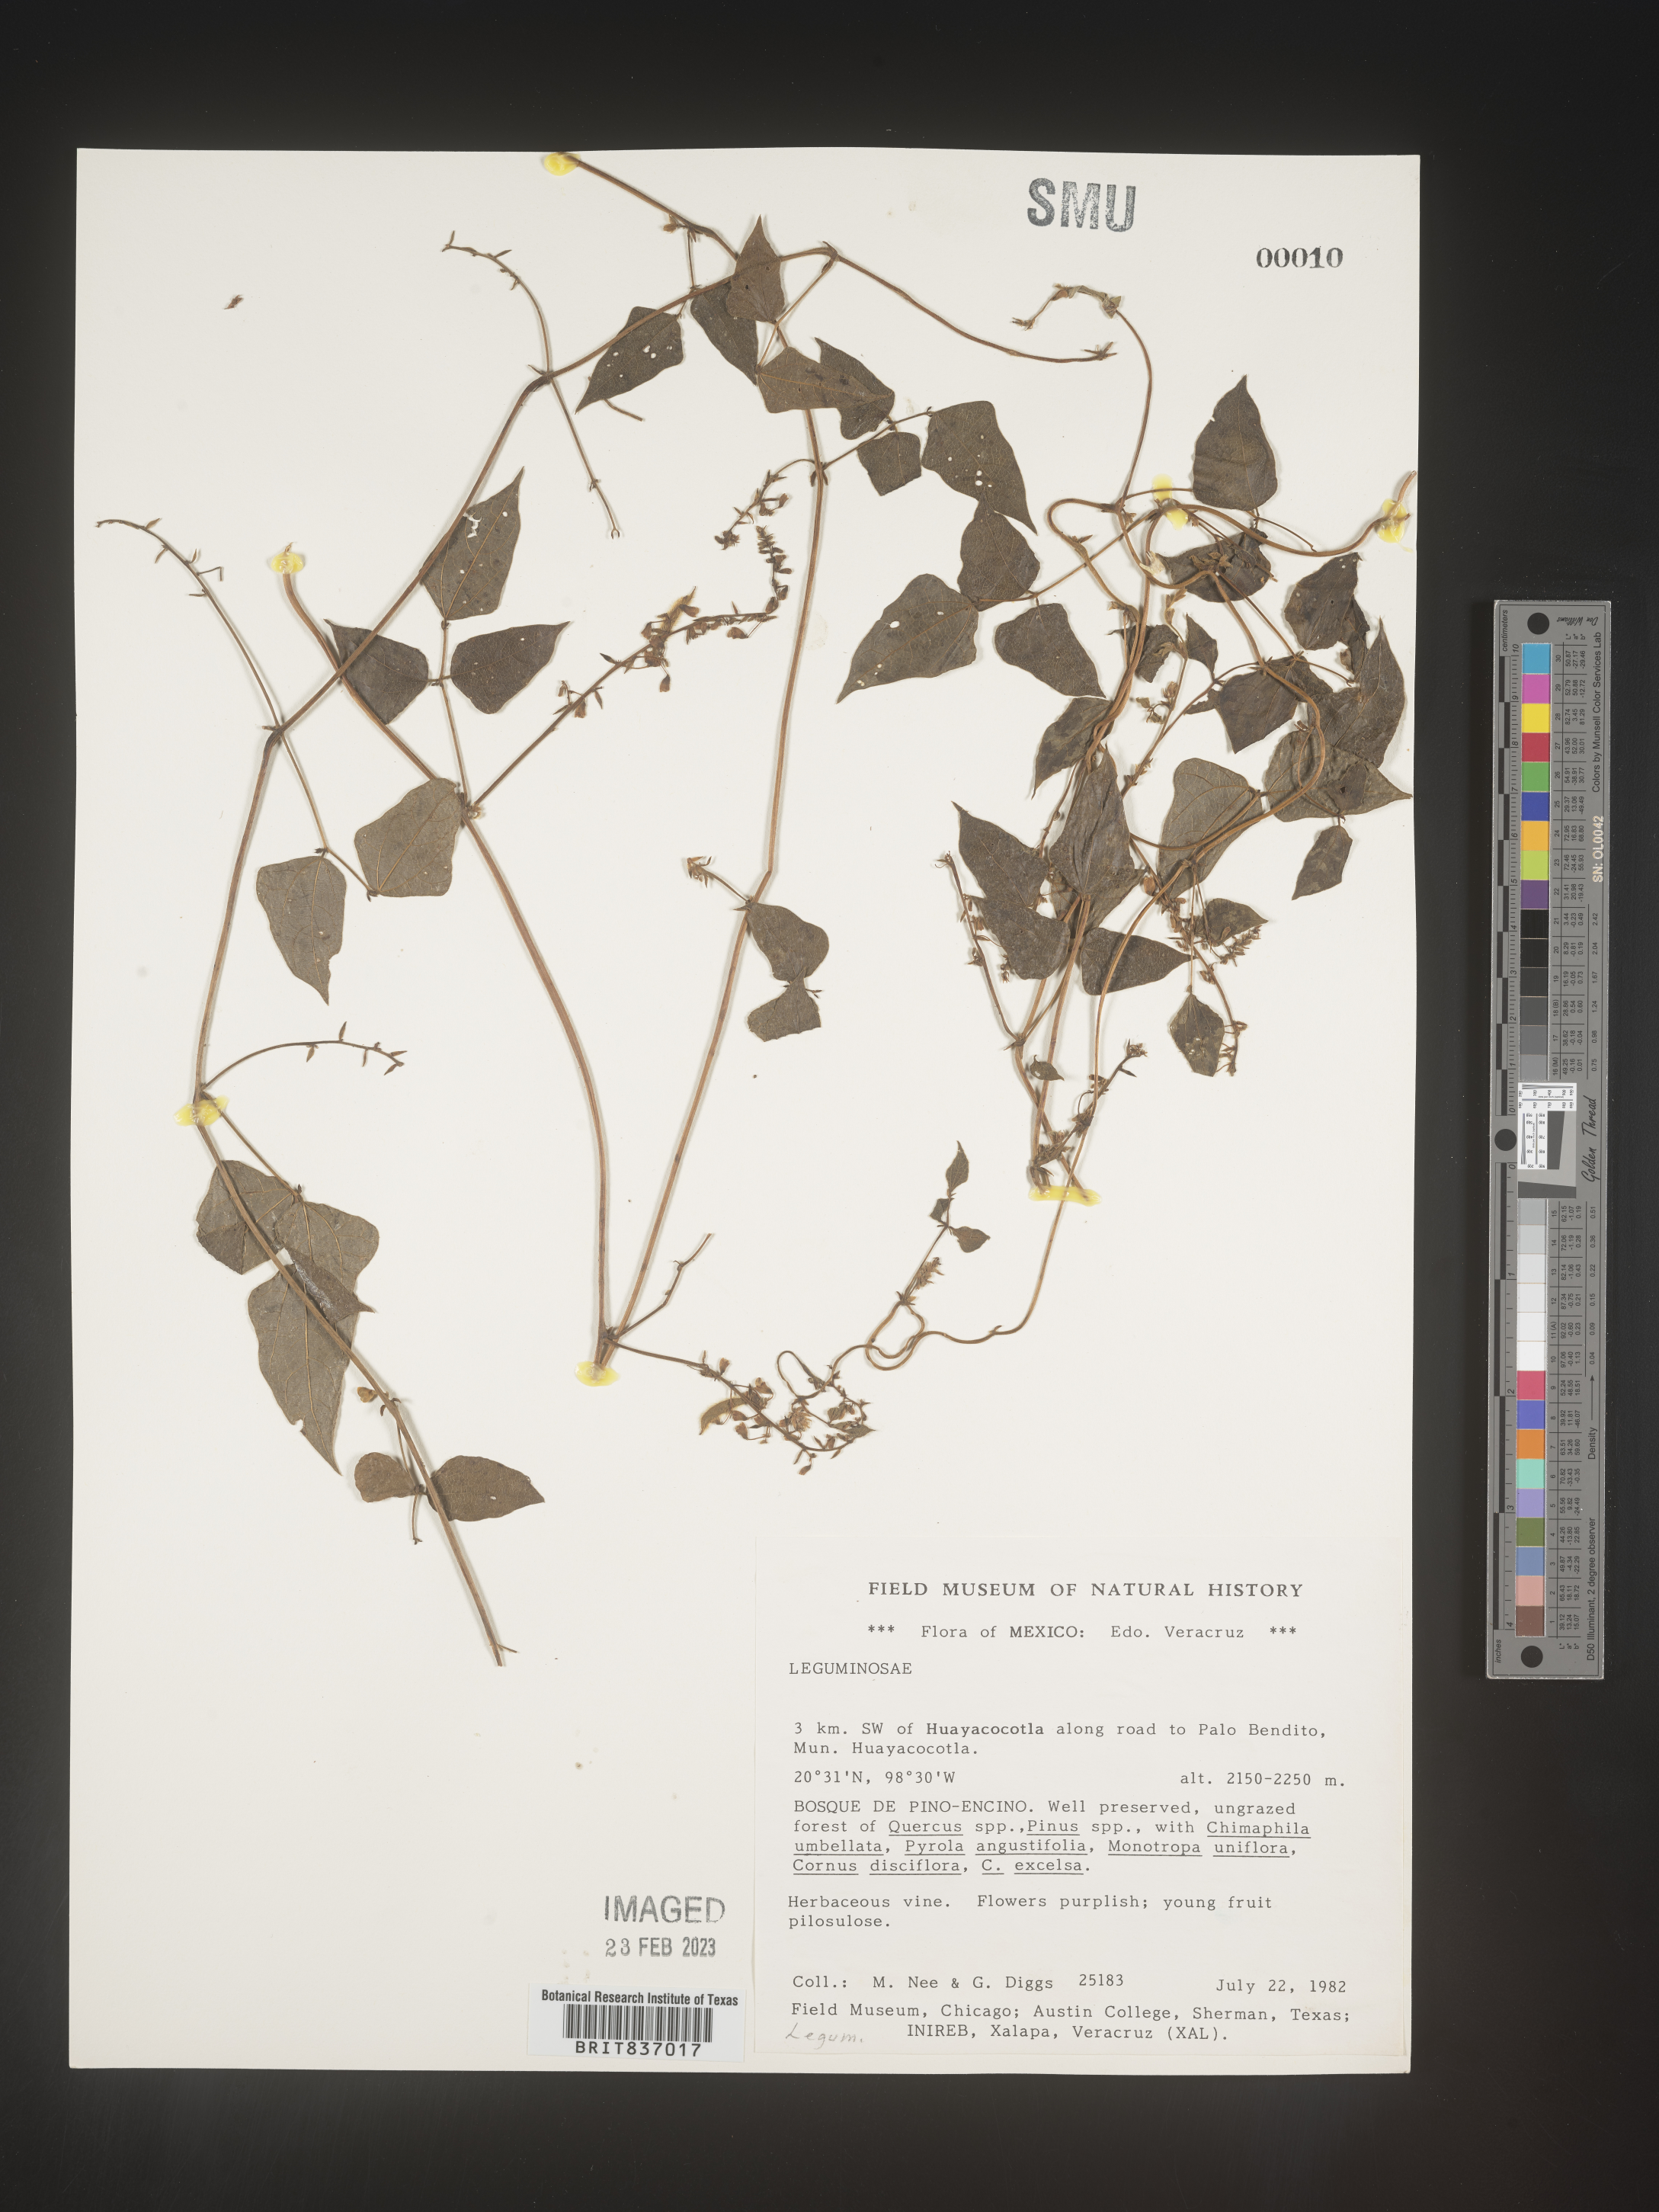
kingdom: Plantae
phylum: Tracheophyta
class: Magnoliopsida
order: Fabales
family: Fabaceae
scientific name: Fabaceae
